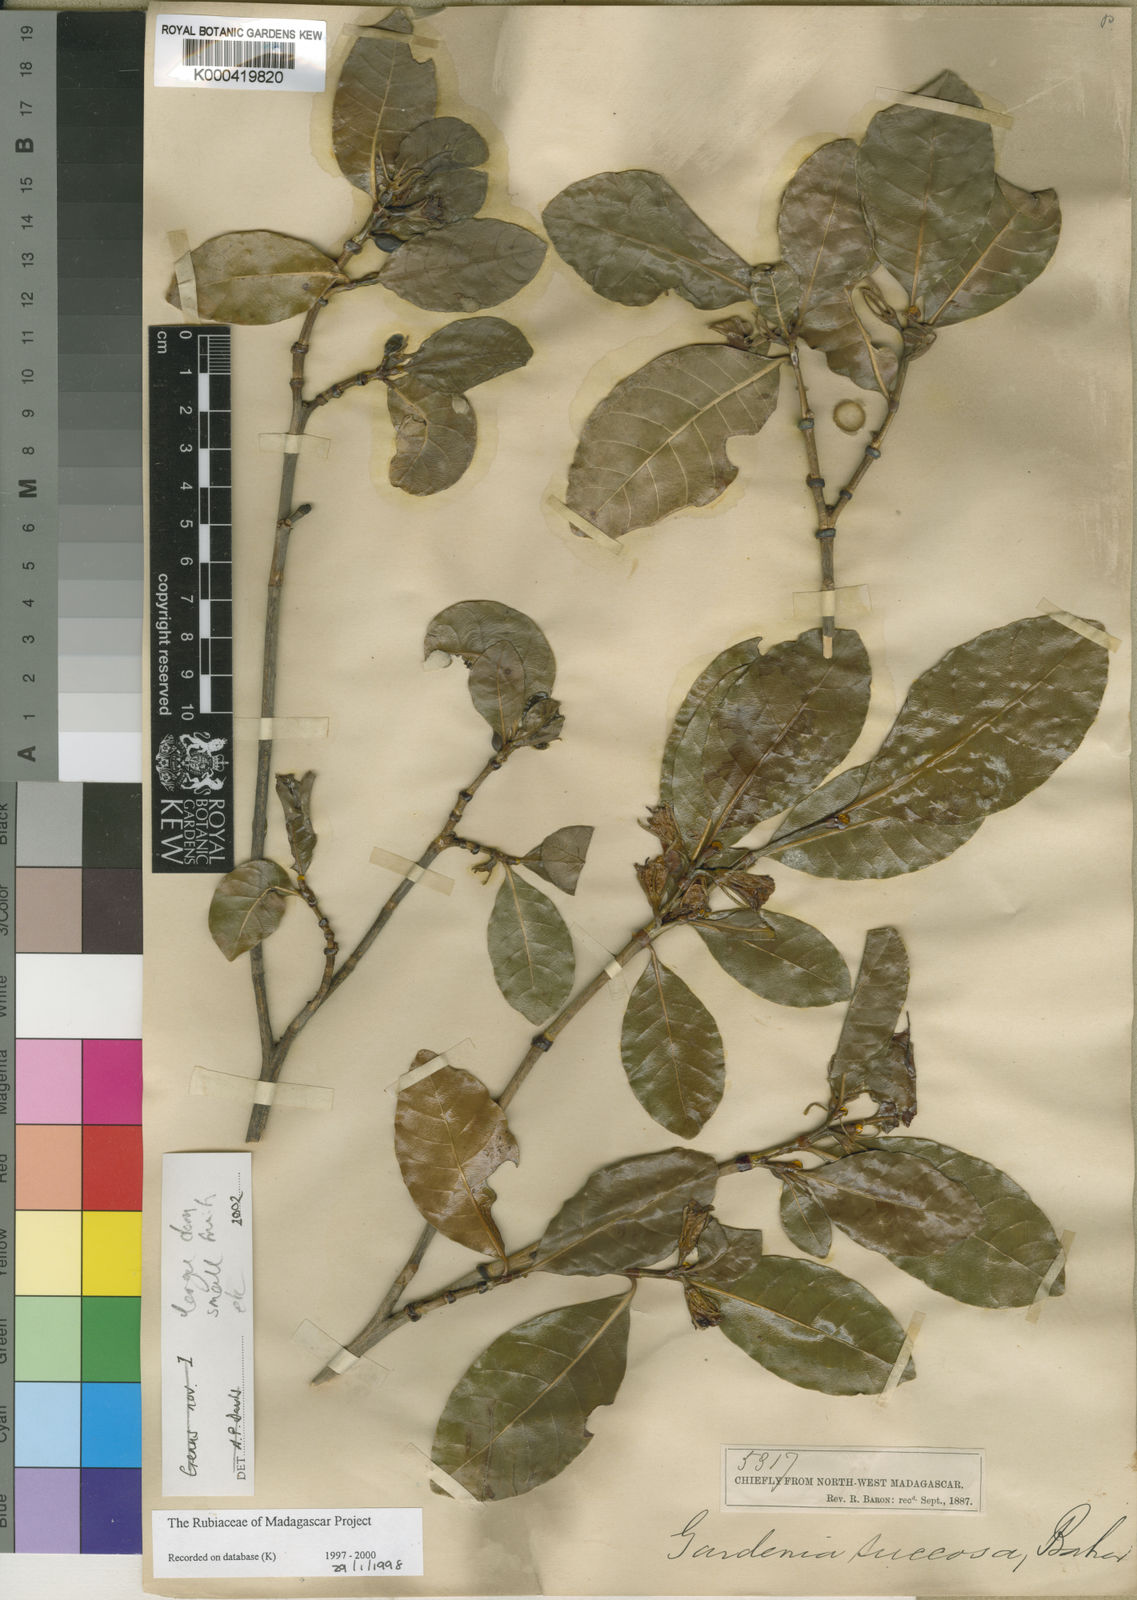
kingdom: Plantae
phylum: Tracheophyta
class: Magnoliopsida
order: Gentianales
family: Rubiaceae
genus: Gardenia
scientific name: Gardenia rutenbergiana
